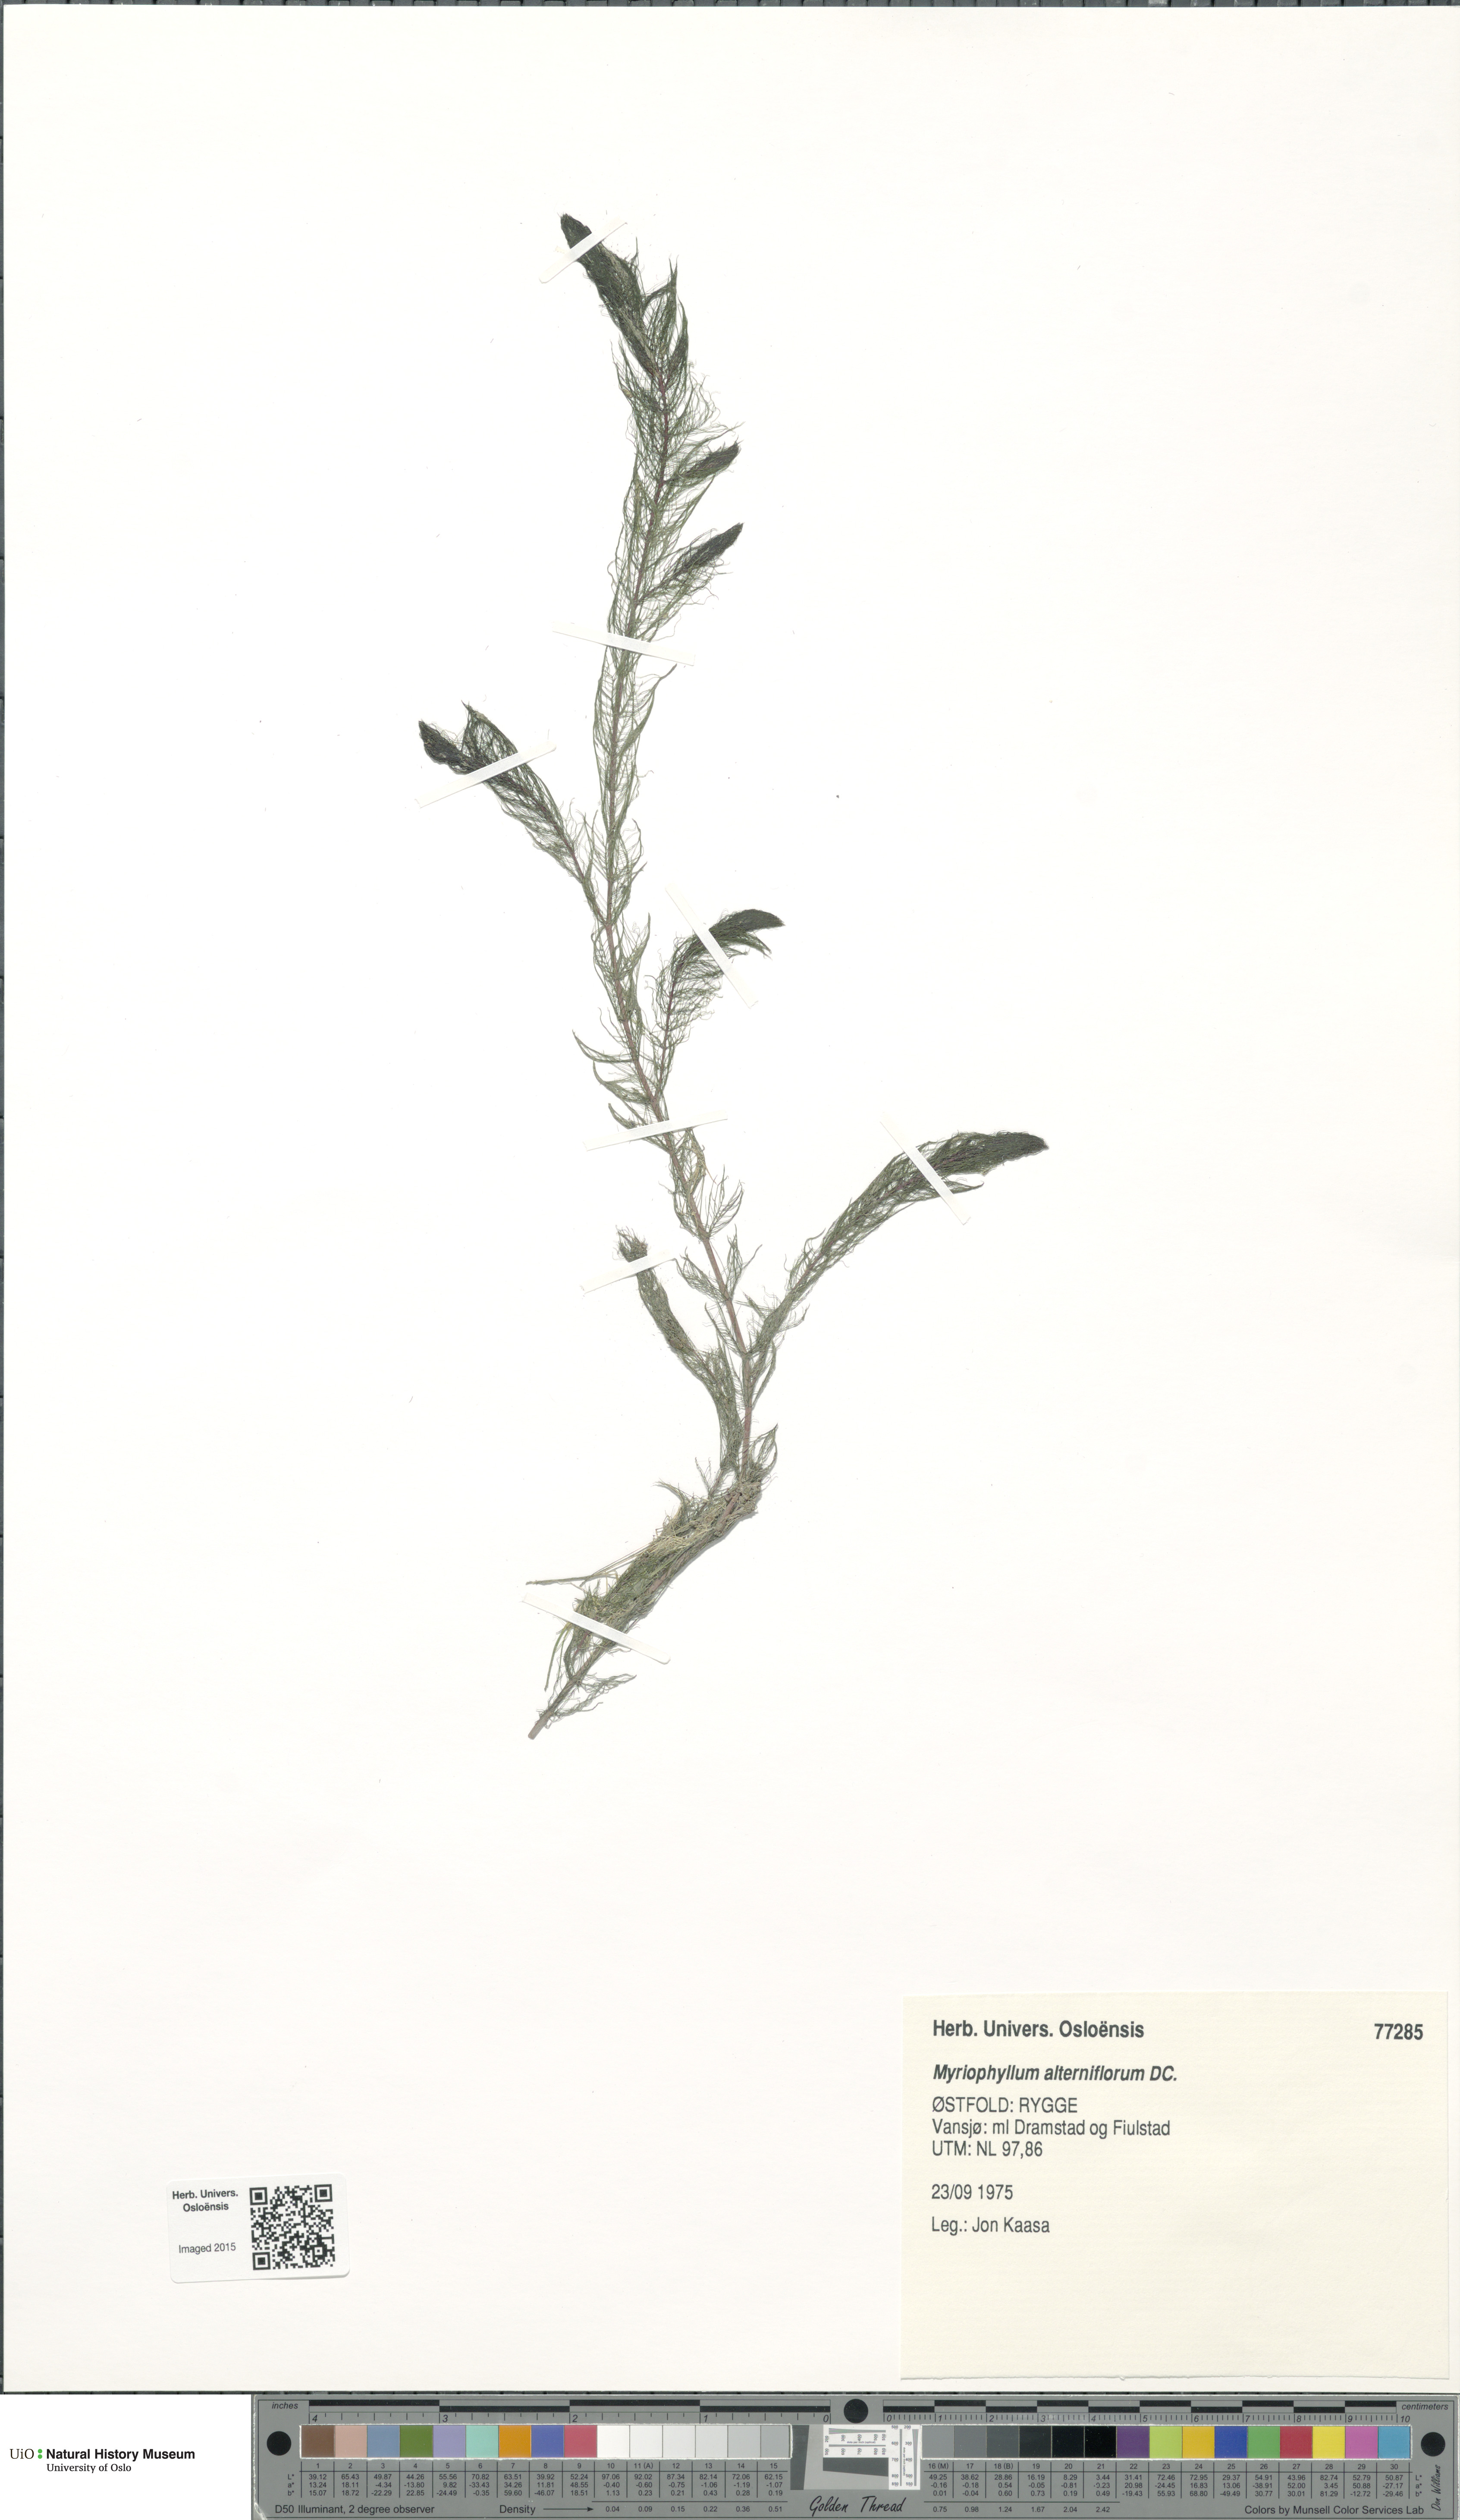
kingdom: Plantae
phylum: Tracheophyta
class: Magnoliopsida
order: Saxifragales
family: Haloragaceae
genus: Myriophyllum
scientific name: Myriophyllum alterniflorum
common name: Alternate water-milfoil
